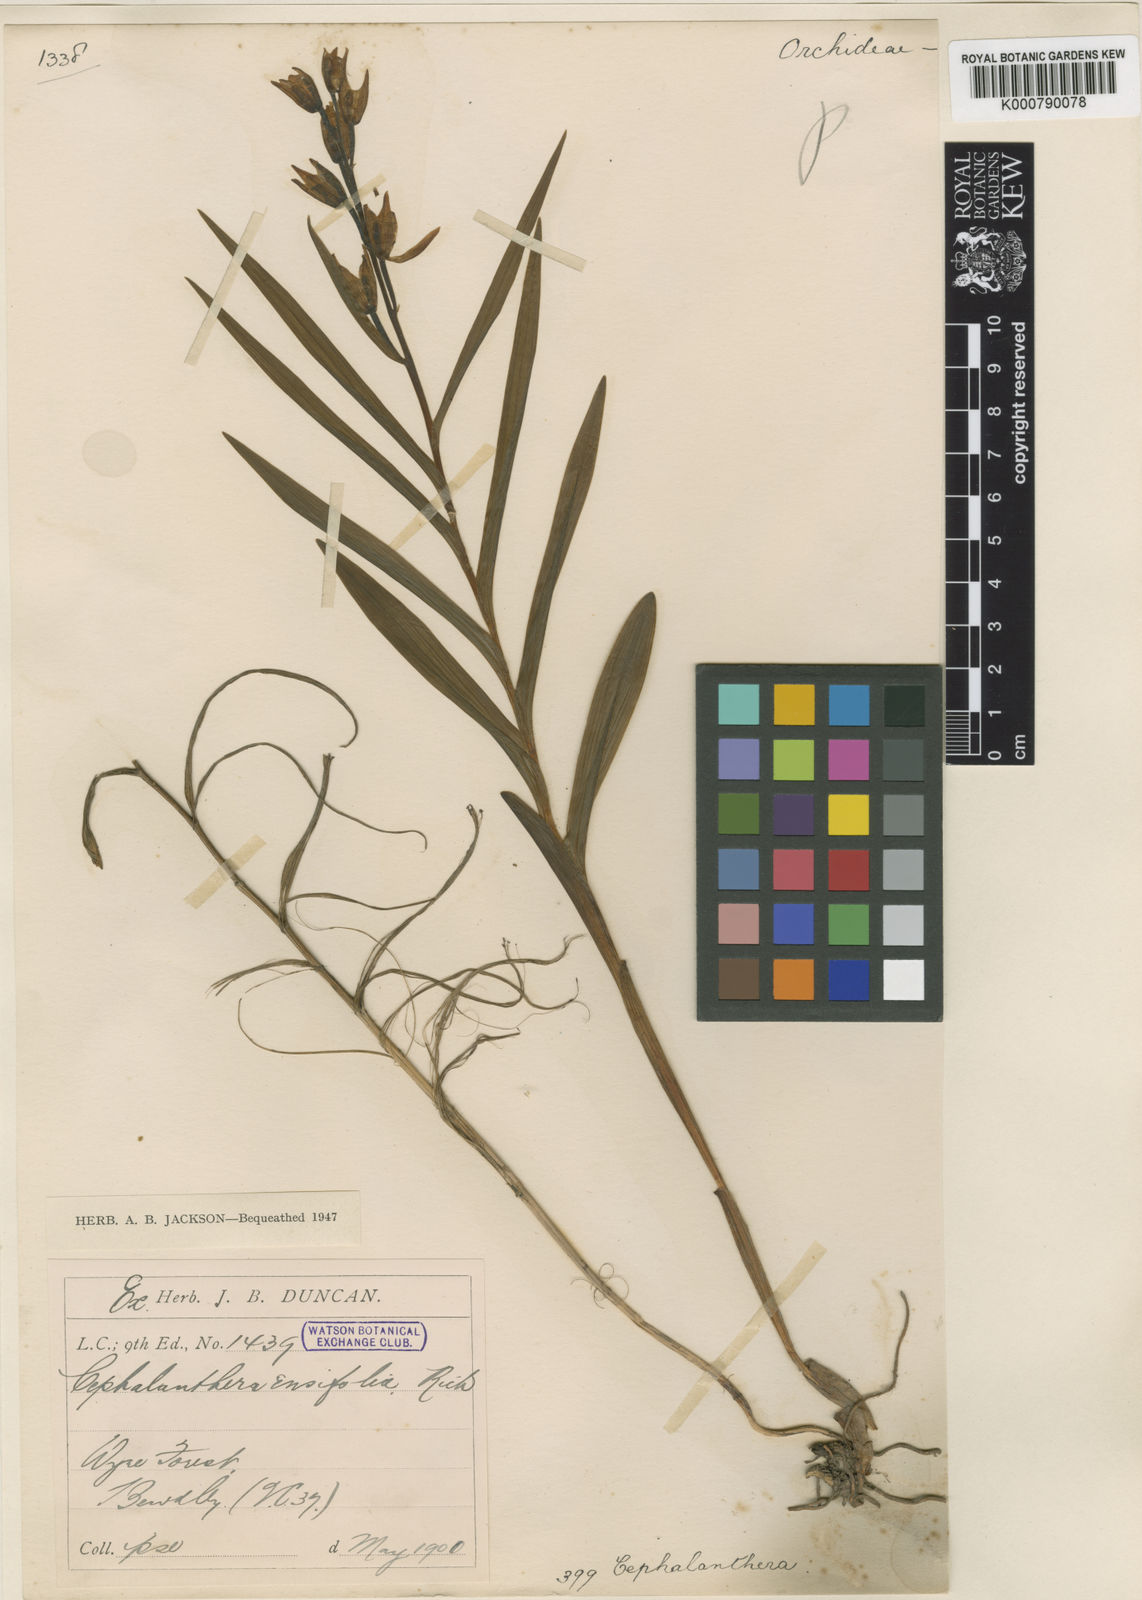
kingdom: Plantae
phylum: Tracheophyta
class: Liliopsida
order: Asparagales
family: Orchidaceae
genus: Cephalanthera
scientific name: Cephalanthera longifolia
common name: Narrow-leaved helleborine
